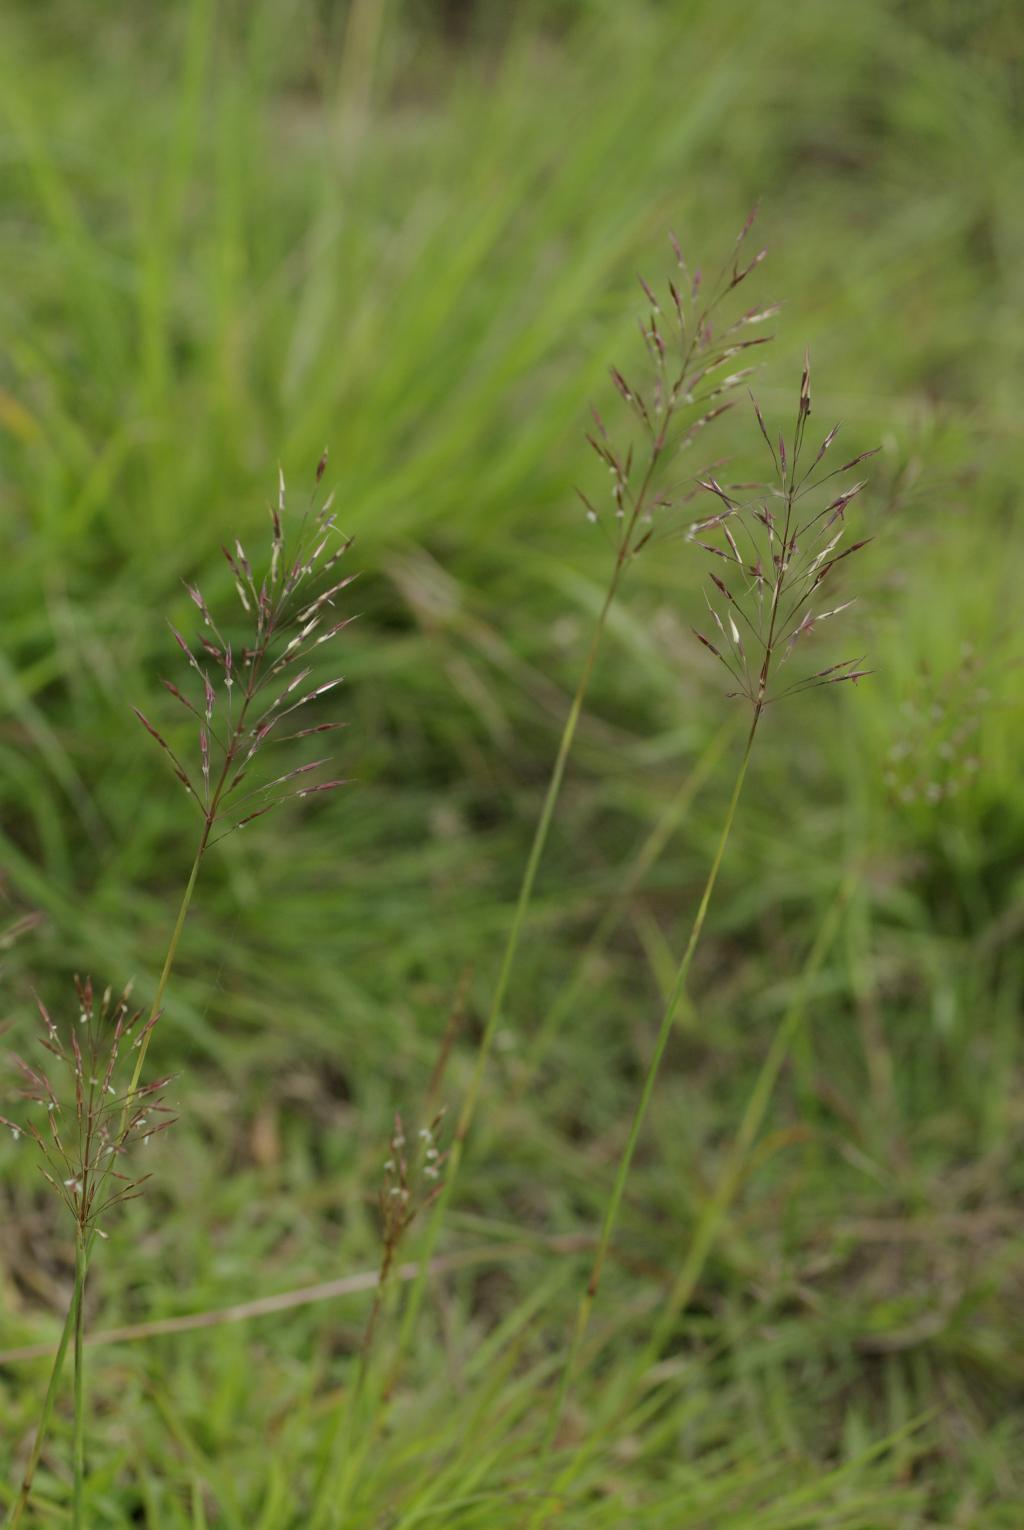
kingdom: Plantae
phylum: Tracheophyta
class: Liliopsida
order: Poales
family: Poaceae
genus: Chrysopogon
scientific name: Chrysopogon aciculatus
